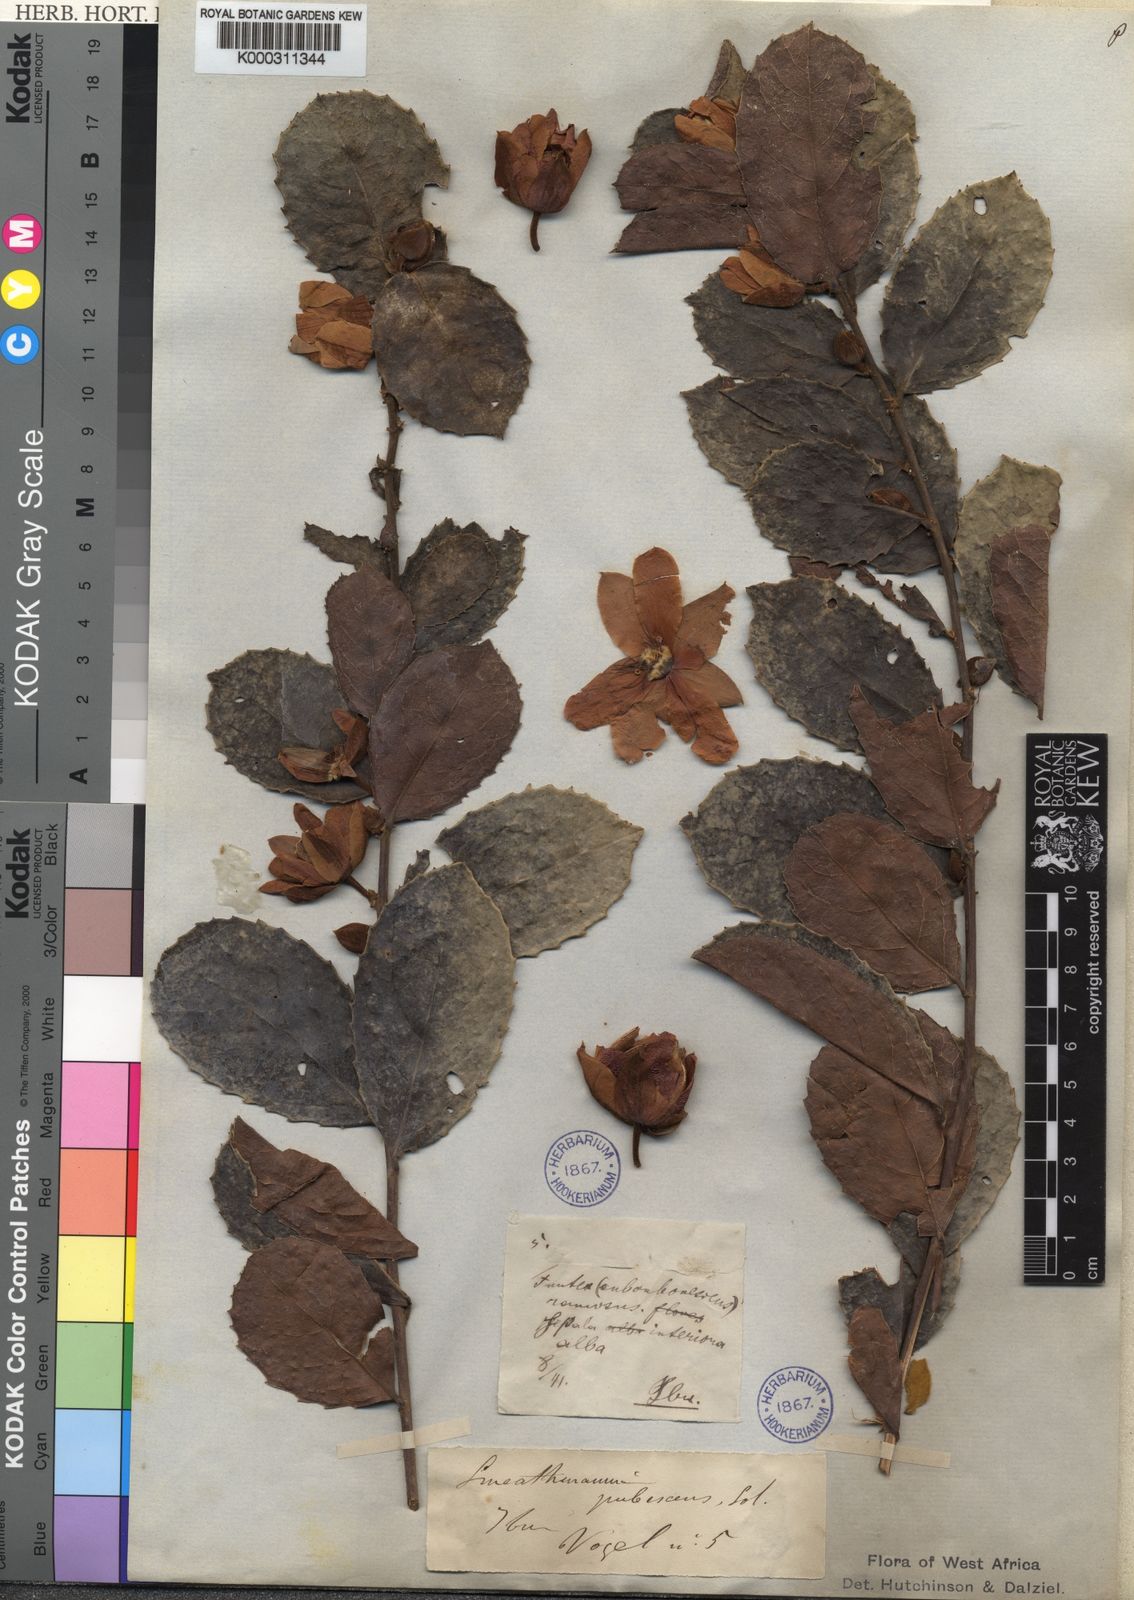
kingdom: Plantae
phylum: Tracheophyta
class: Magnoliopsida
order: Malpighiales
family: Passifloraceae
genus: Smeathmannia
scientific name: Smeathmannia pubescens
